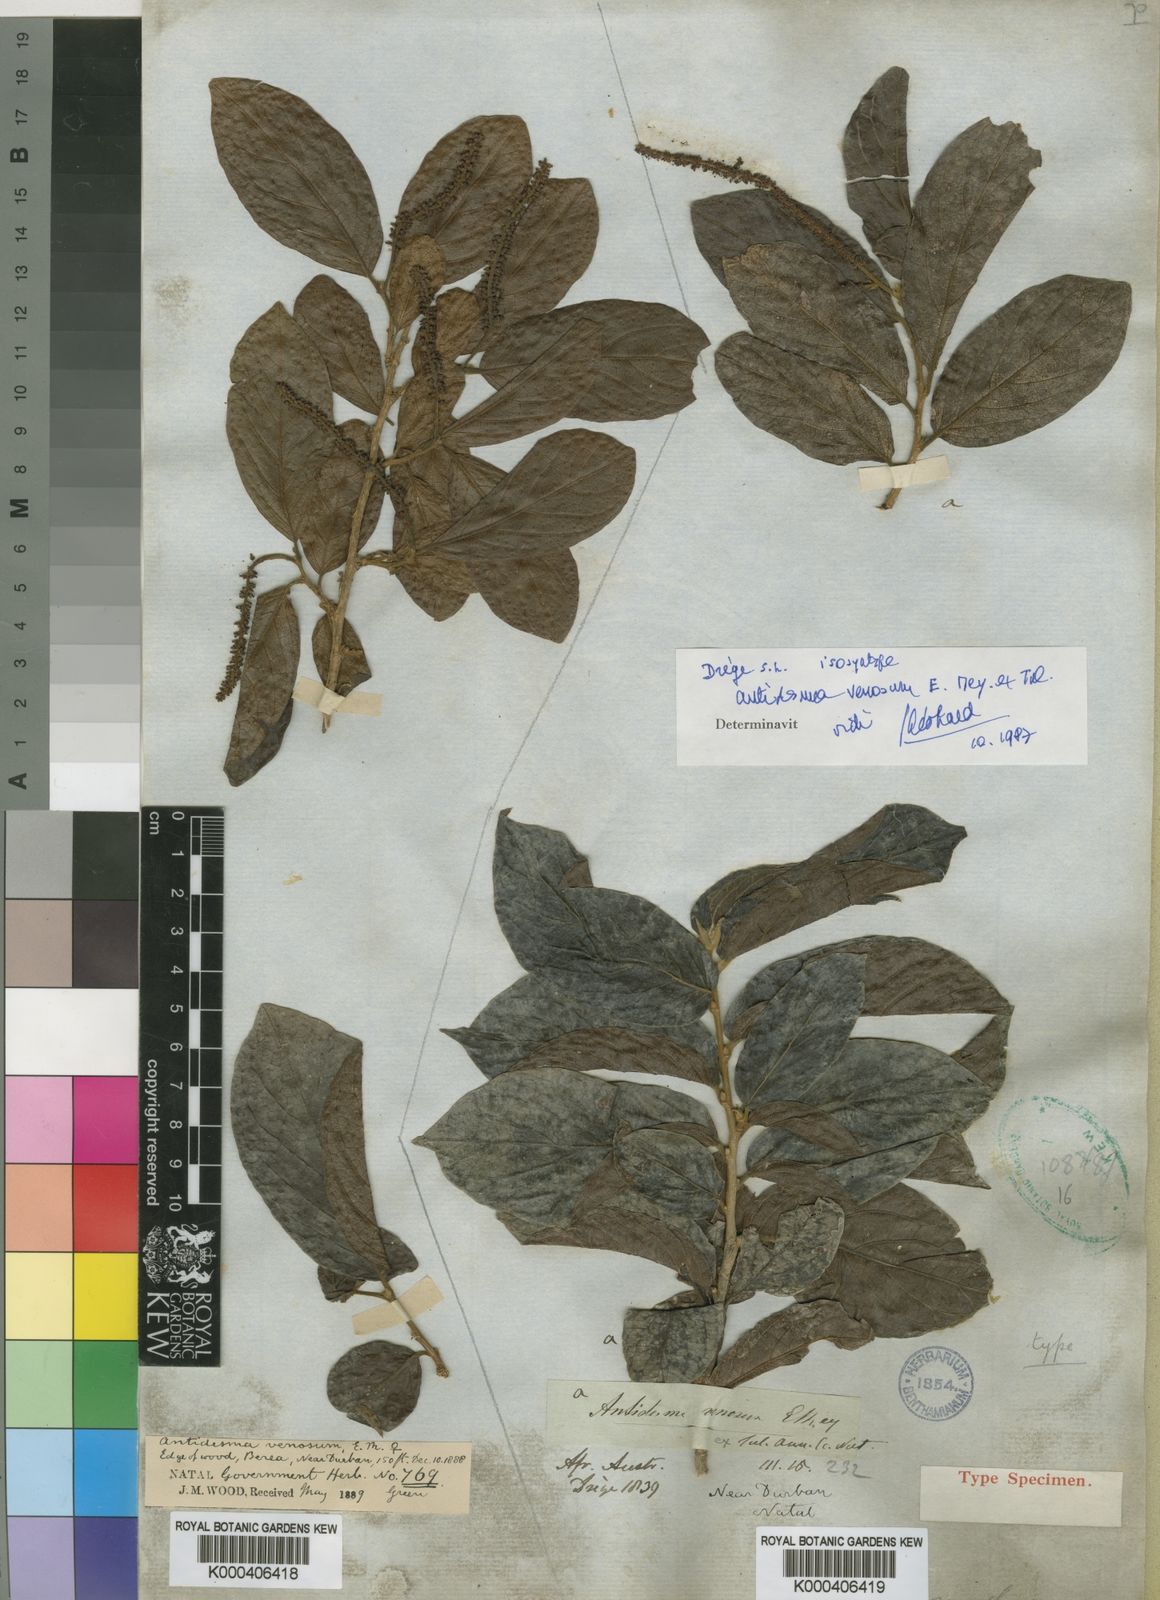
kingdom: Plantae
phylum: Tracheophyta
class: Magnoliopsida
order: Malpighiales
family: Phyllanthaceae
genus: Antidesma
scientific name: Antidesma venosum
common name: Tassel-berry
